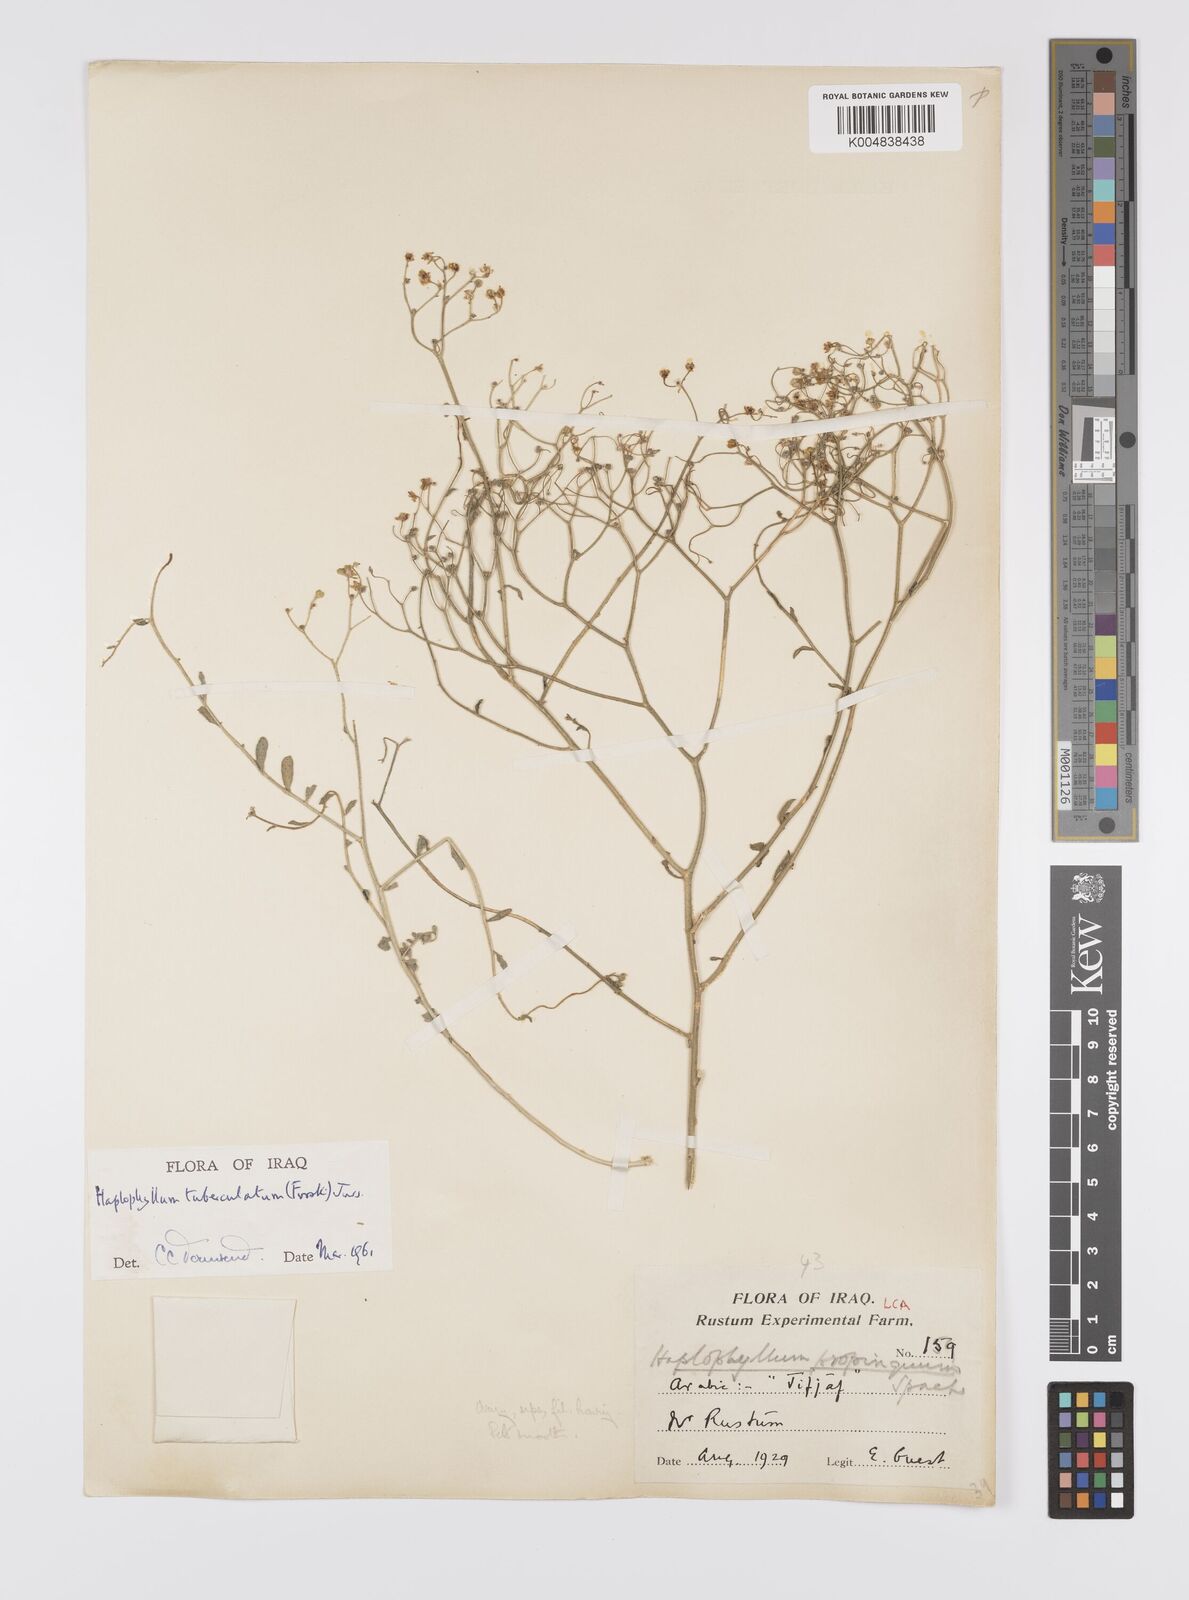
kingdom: Plantae
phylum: Tracheophyta
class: Magnoliopsida
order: Sapindales
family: Rutaceae
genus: Haplophyllum
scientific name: Haplophyllum tuberculatum
